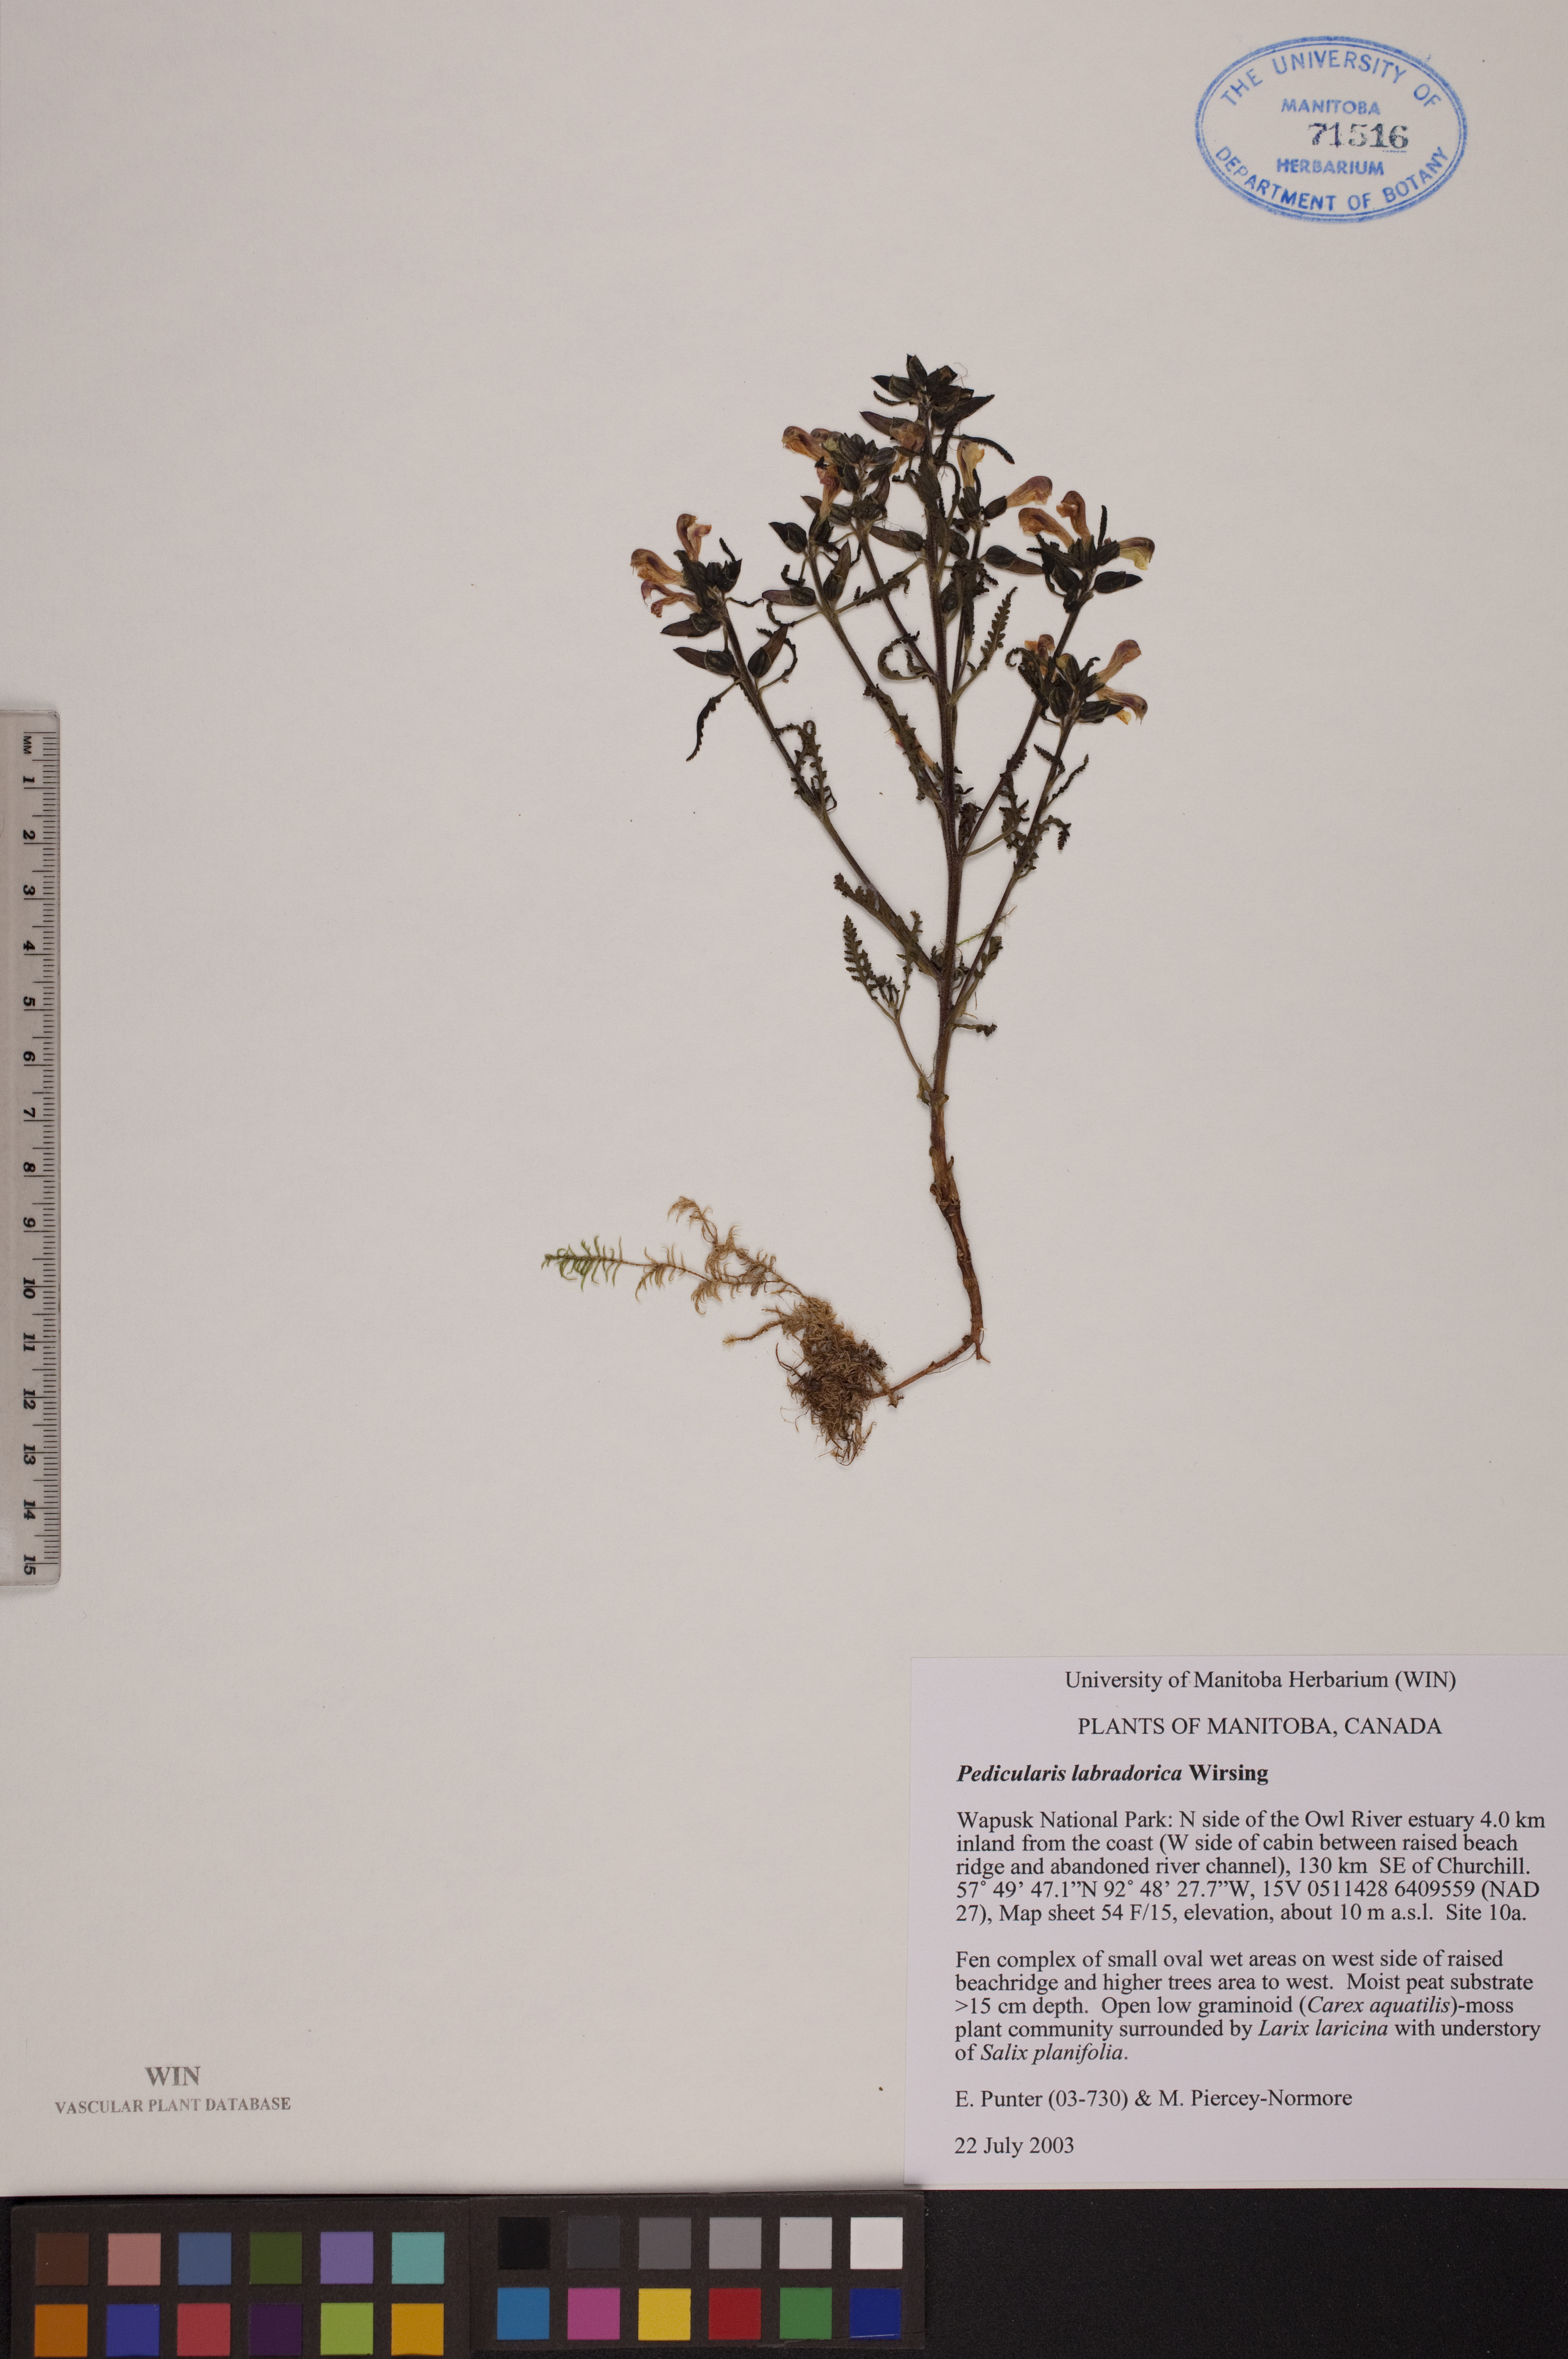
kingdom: Plantae
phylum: Tracheophyta
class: Magnoliopsida
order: Lamiales
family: Orobanchaceae
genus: Pedicularis
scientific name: Pedicularis labradorica
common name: Labrador lousewort
